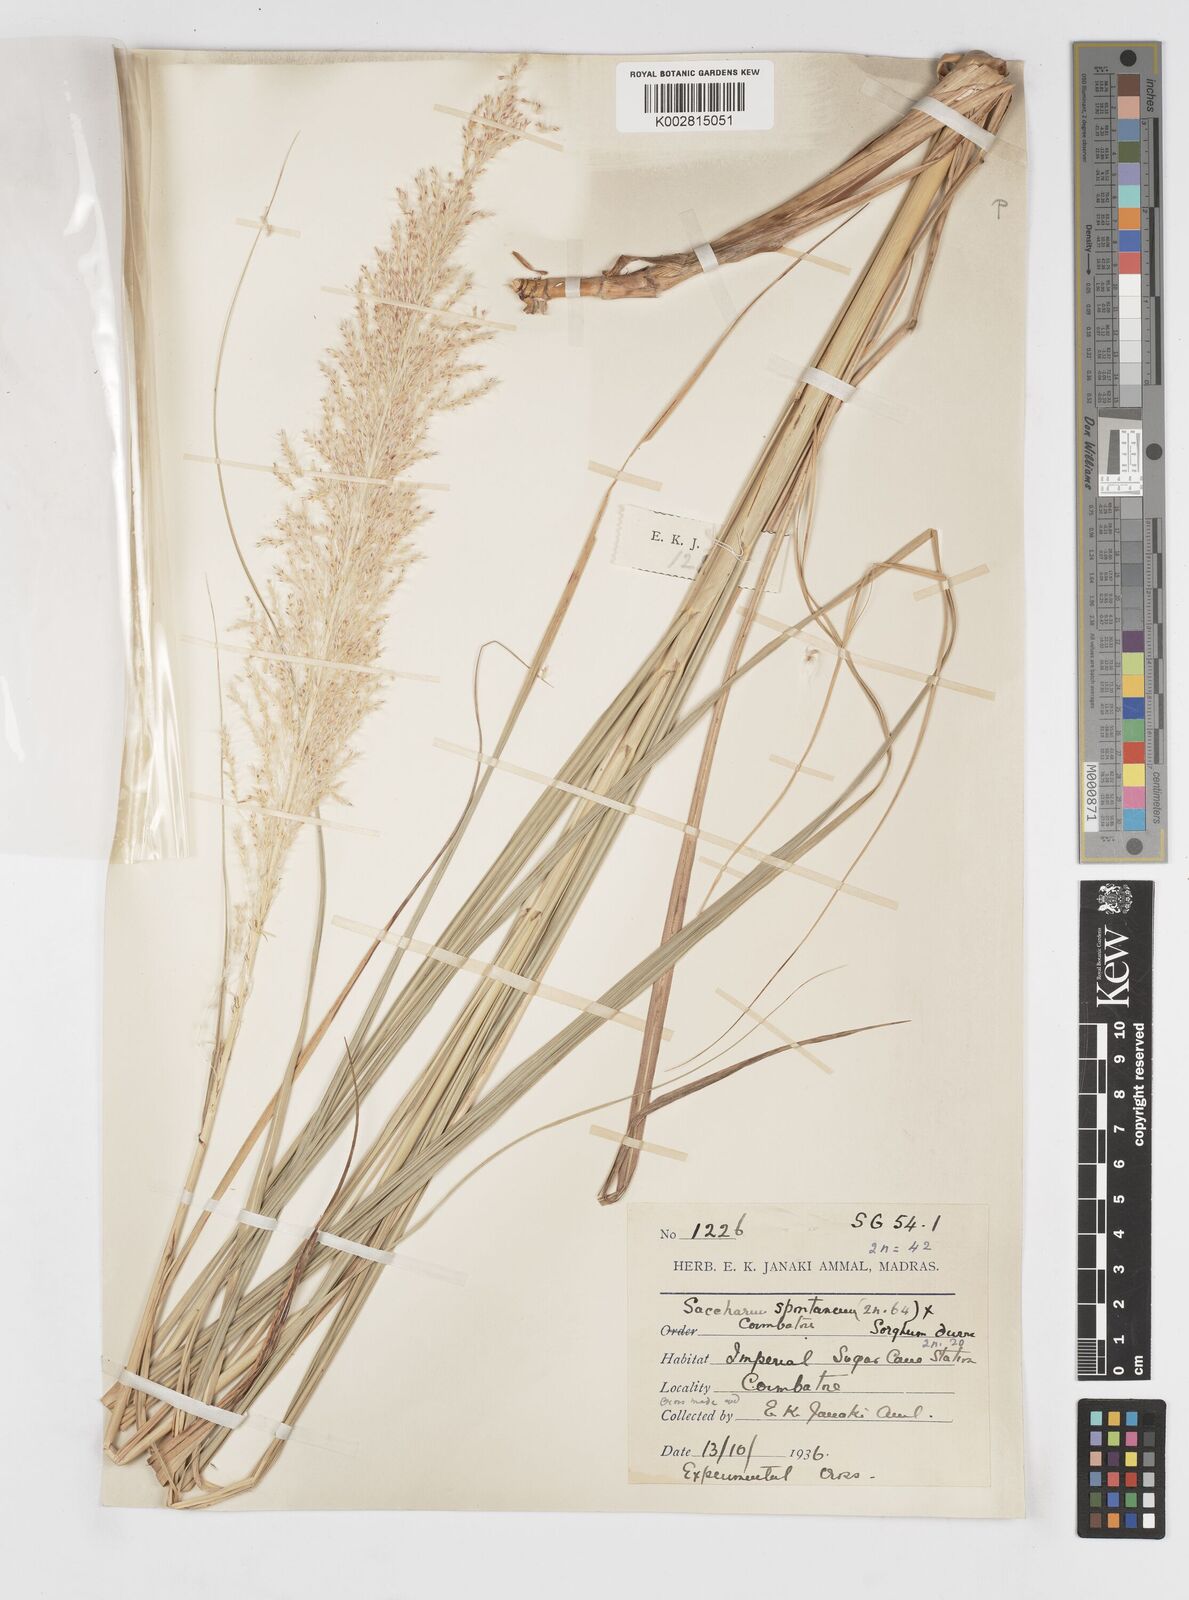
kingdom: Plantae
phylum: Tracheophyta
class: Liliopsida
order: Poales
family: Poaceae
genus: Saccharum
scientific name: Saccharum
